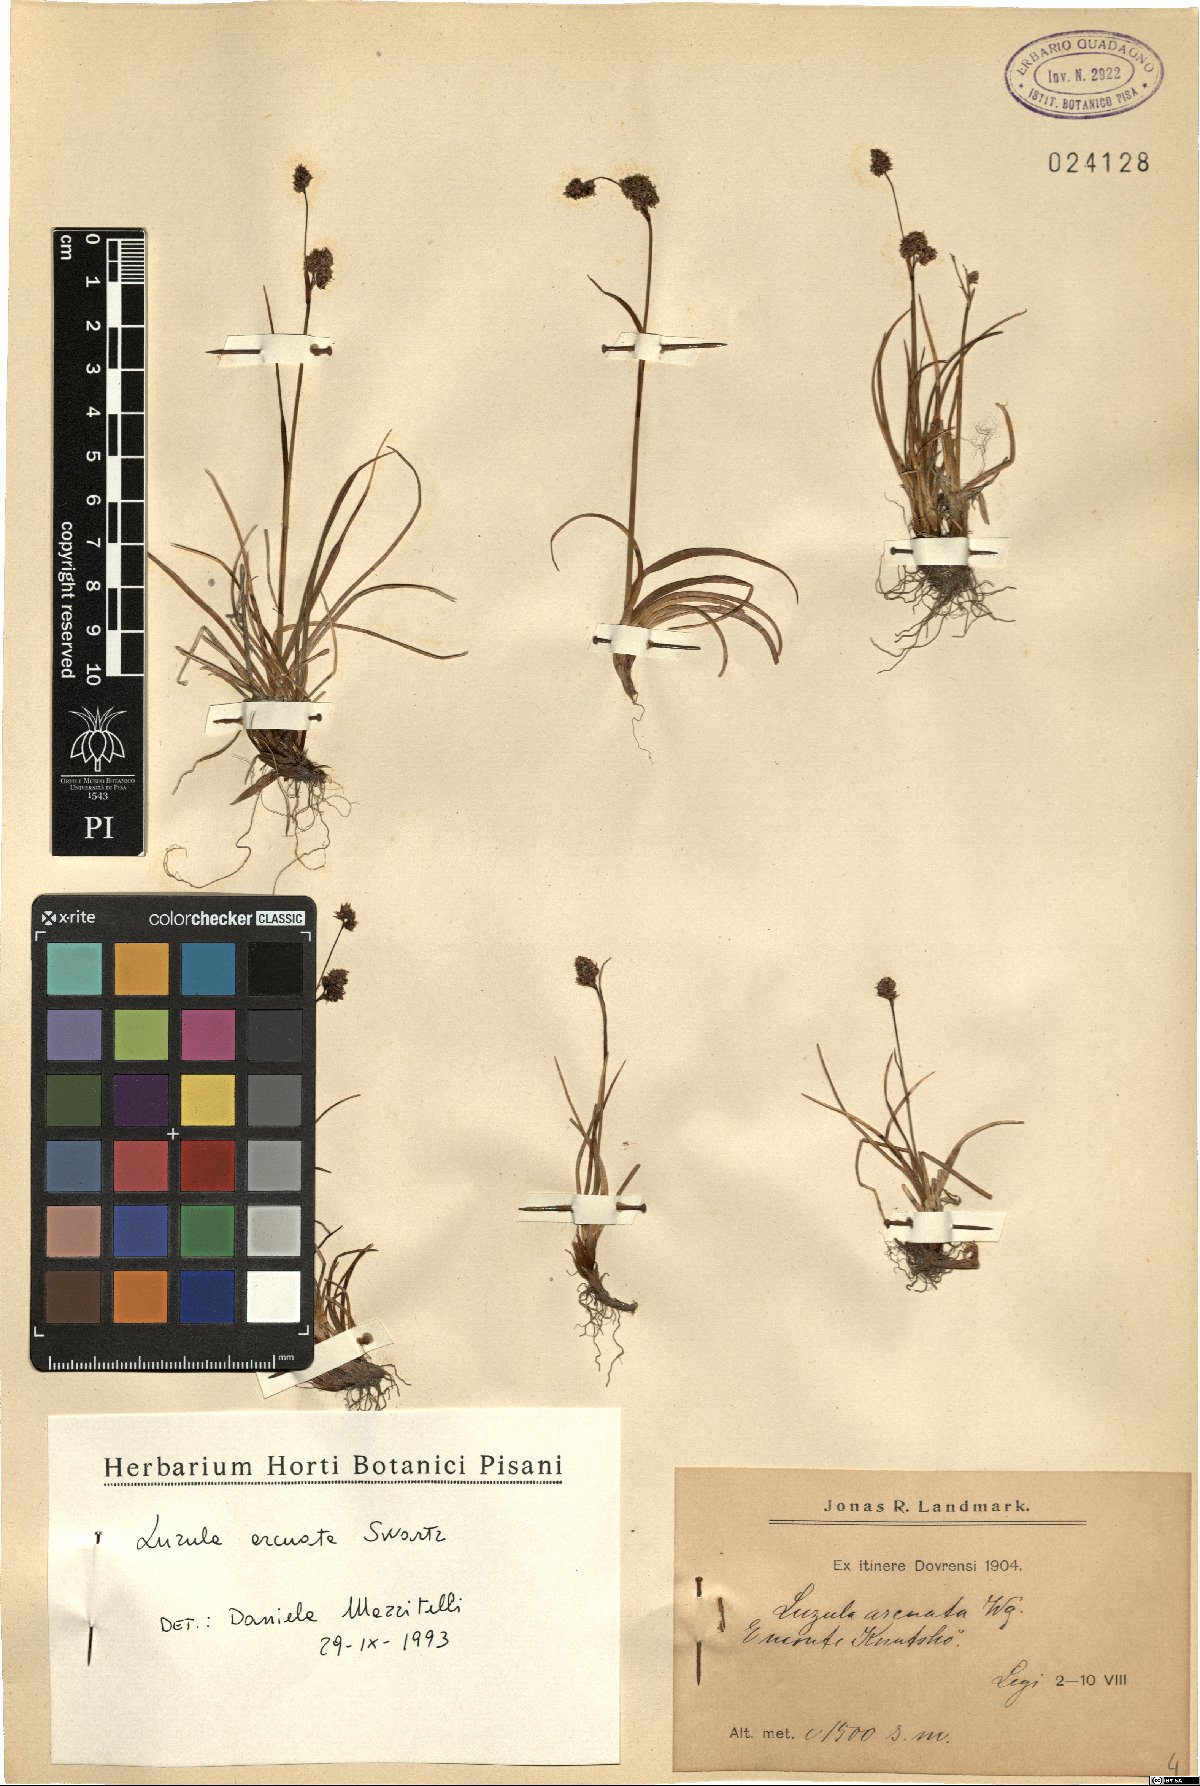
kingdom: Plantae
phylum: Tracheophyta
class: Liliopsida
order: Poales
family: Juncaceae
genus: Luzula
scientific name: Luzula arcuata
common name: Curved wood-rush
